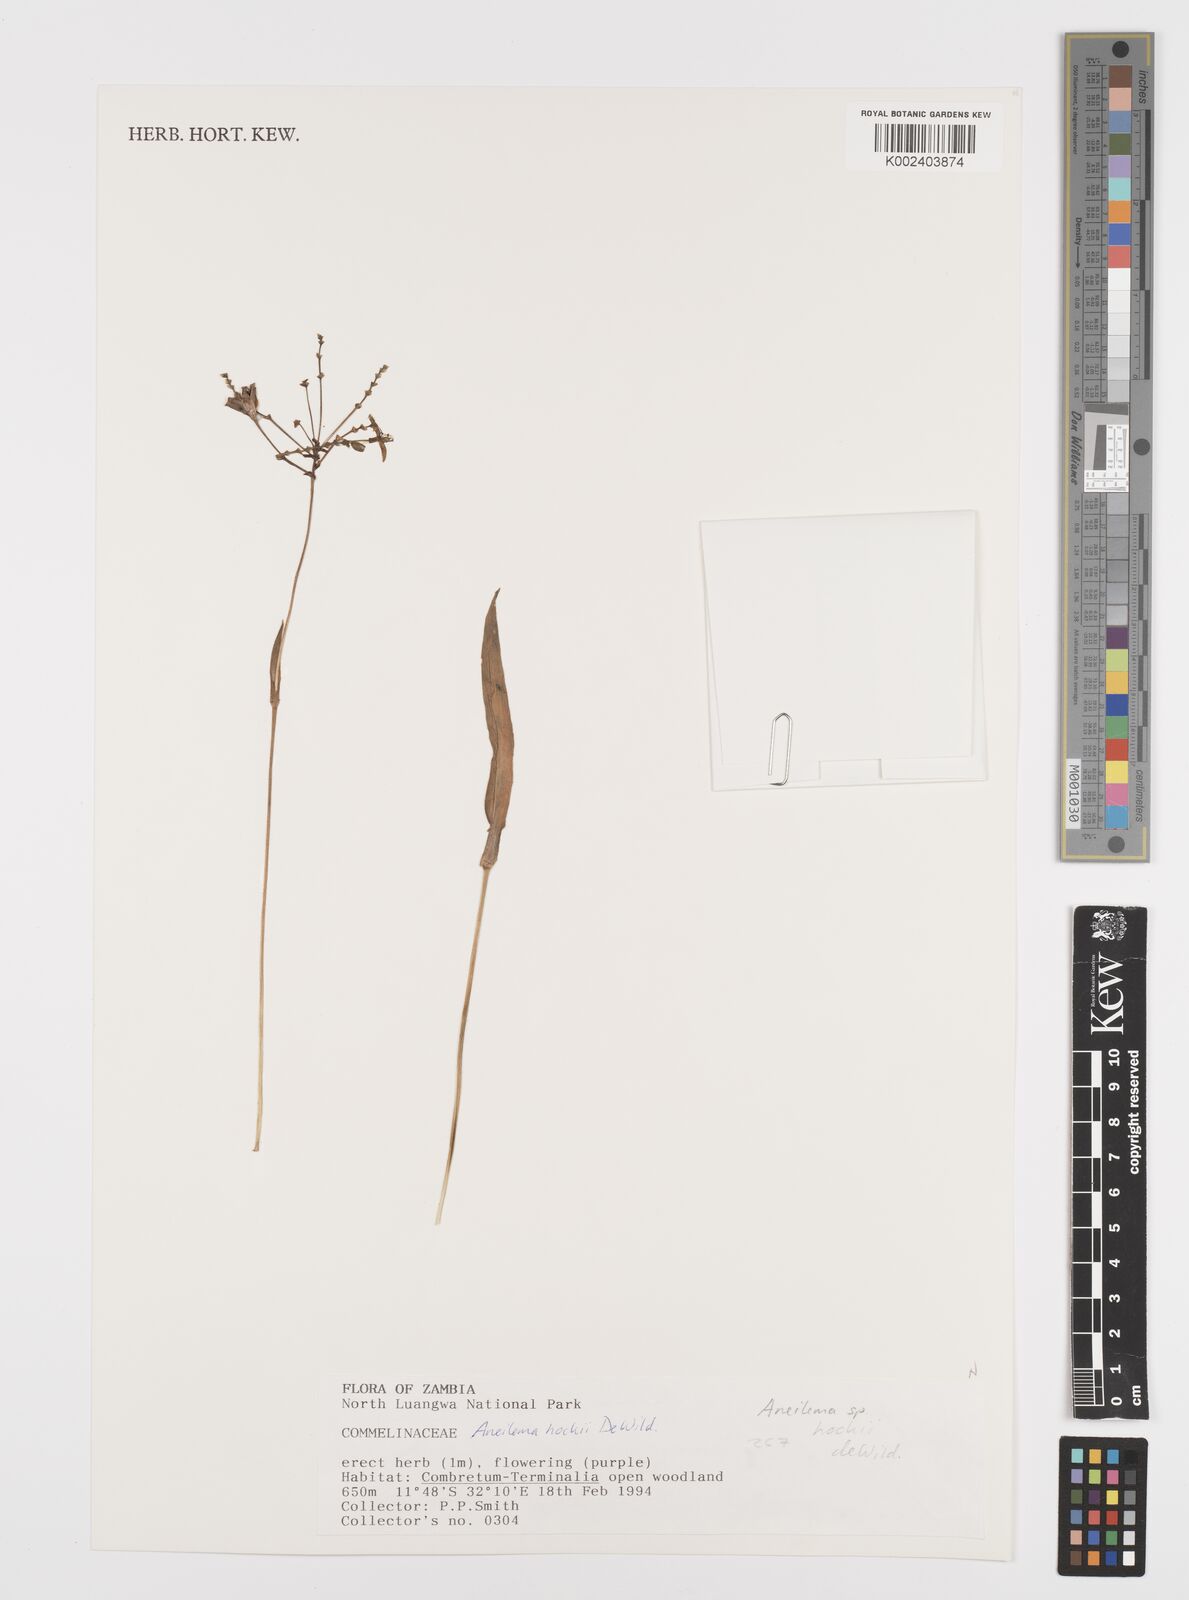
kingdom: Plantae
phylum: Tracheophyta
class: Liliopsida
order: Commelinales
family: Commelinaceae
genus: Aneilema
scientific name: Aneilema hockii
